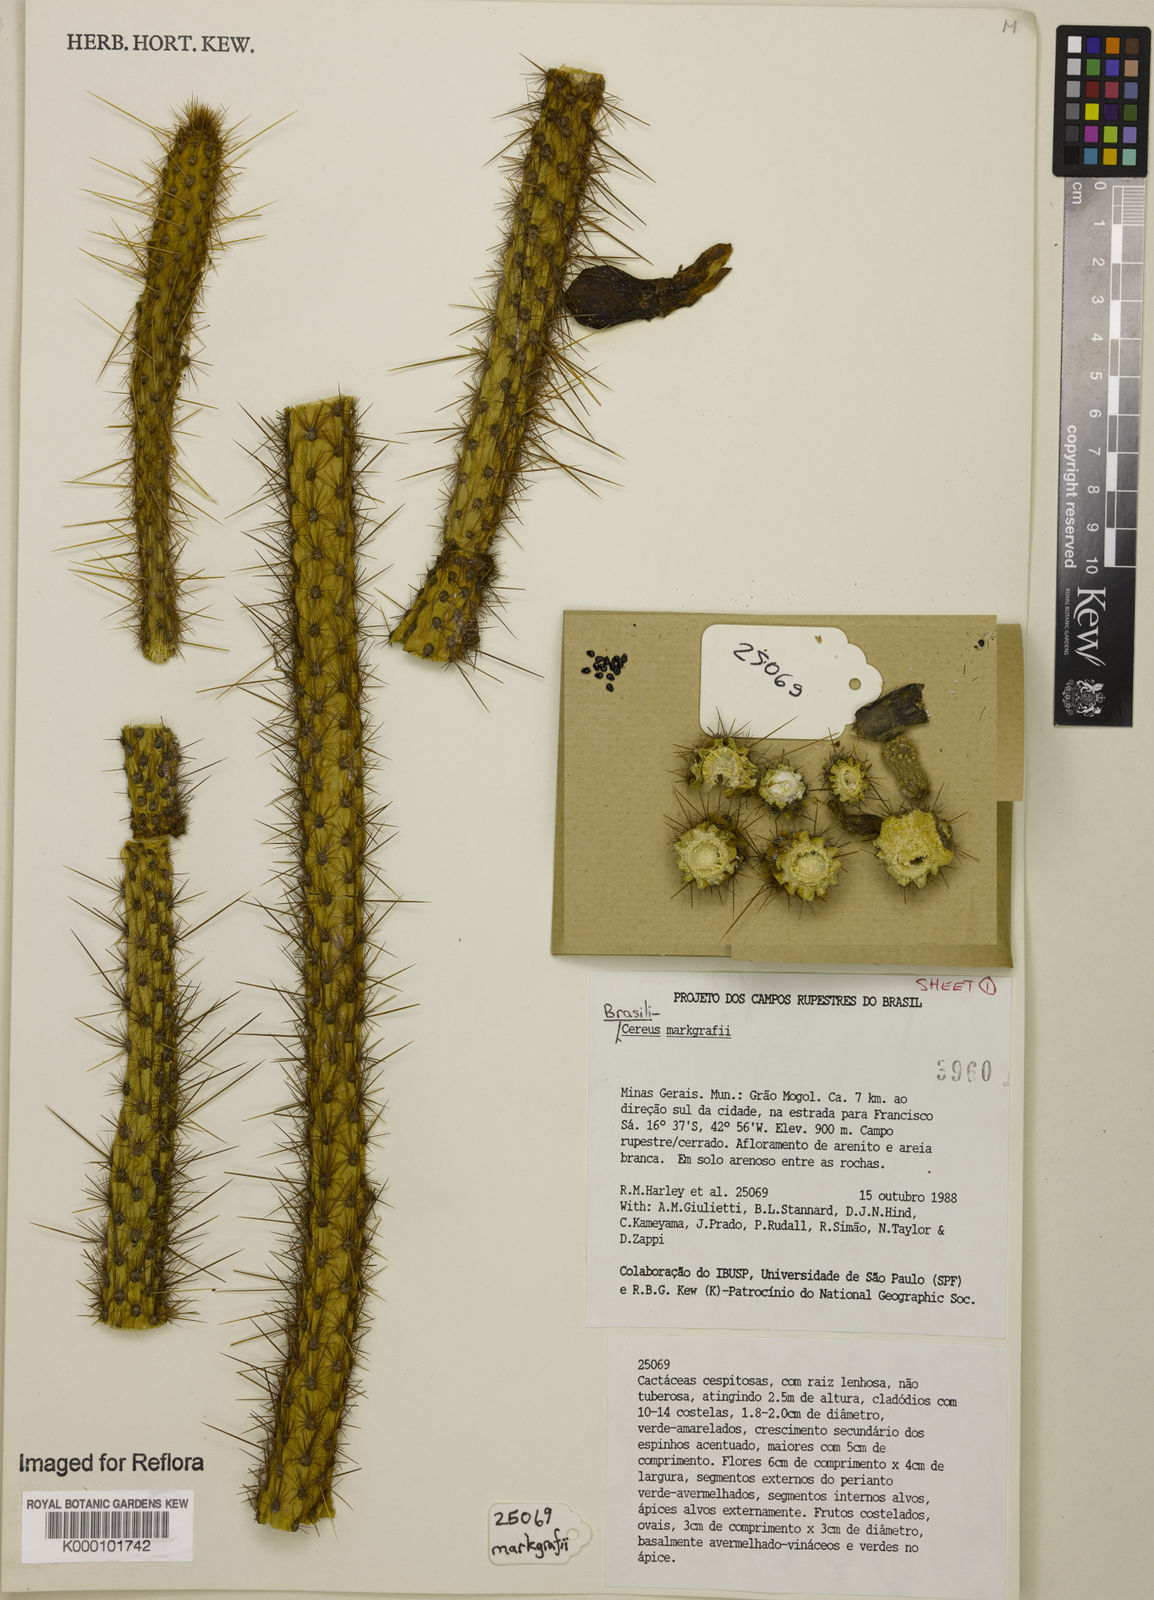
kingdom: Plantae
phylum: Tracheophyta
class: Magnoliopsida
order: Caryophyllales
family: Cactaceae
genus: Brasilicereus
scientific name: Brasilicereus markgrafii
